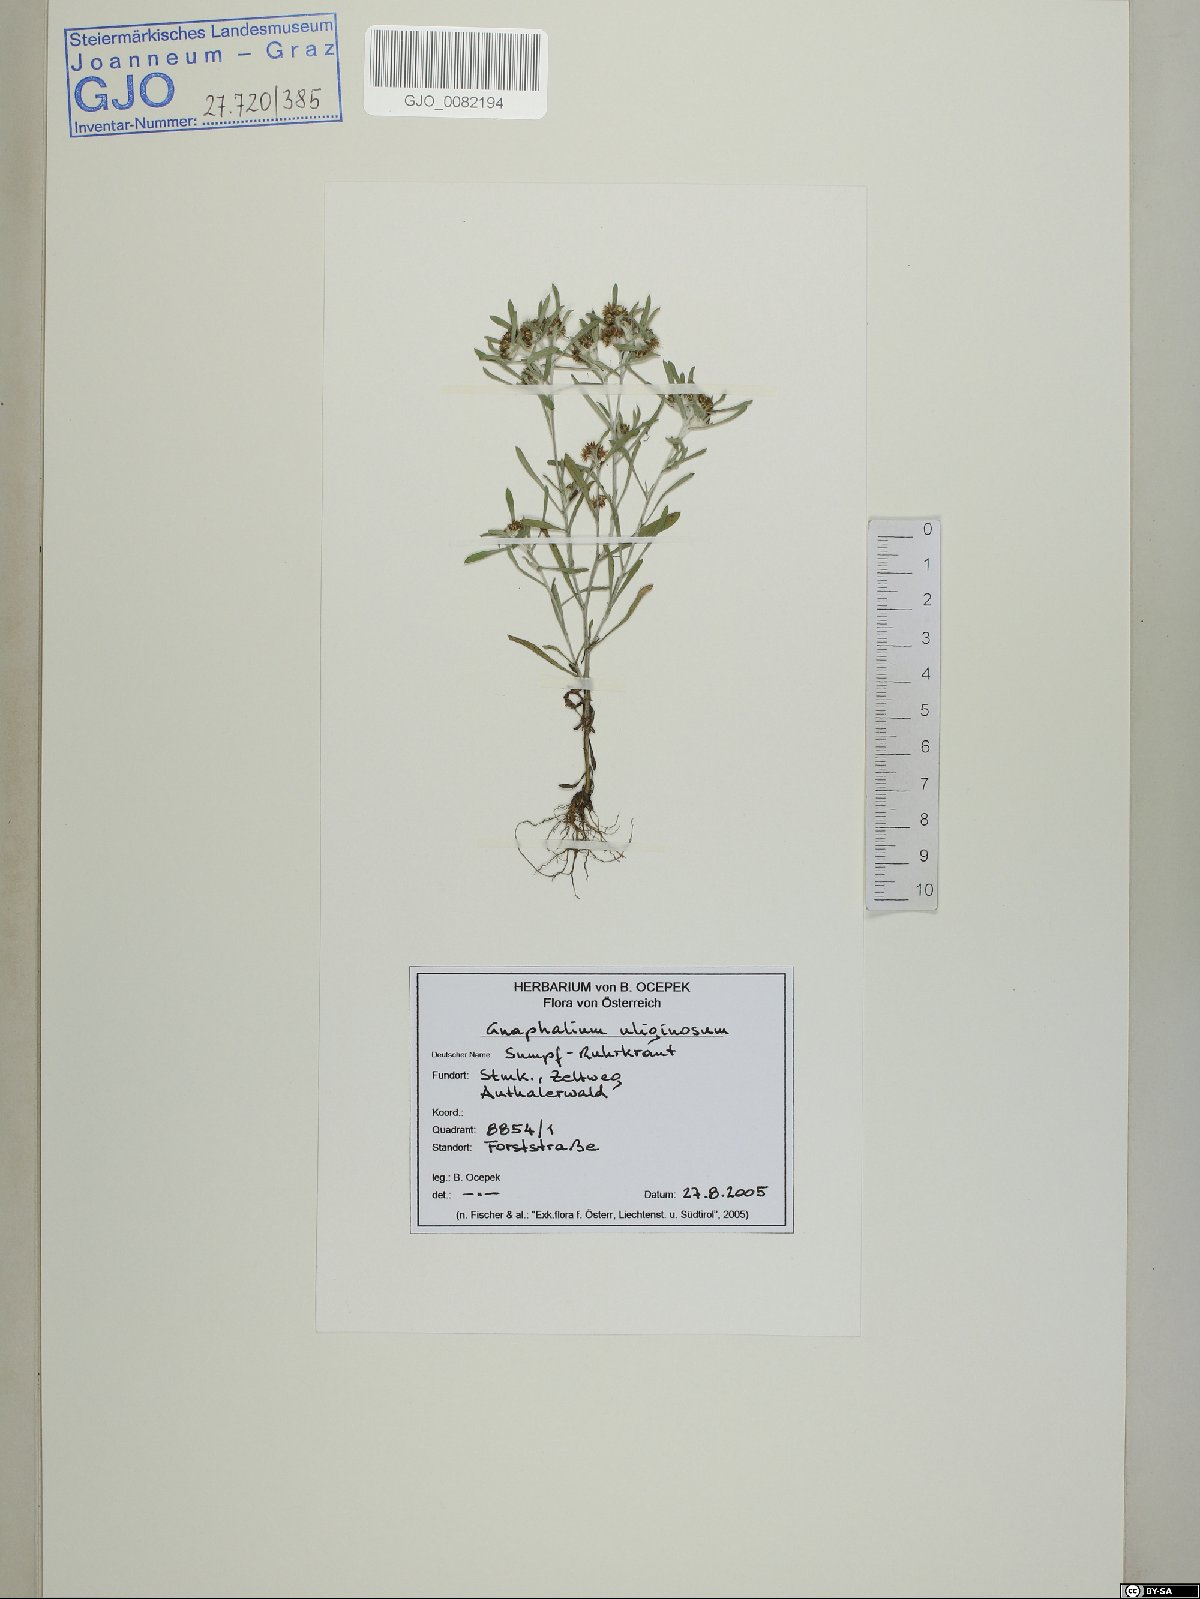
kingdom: Plantae
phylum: Tracheophyta
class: Magnoliopsida
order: Asterales
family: Asteraceae
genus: Gnaphalium
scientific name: Gnaphalium uliginosum
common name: Marsh cudweed
